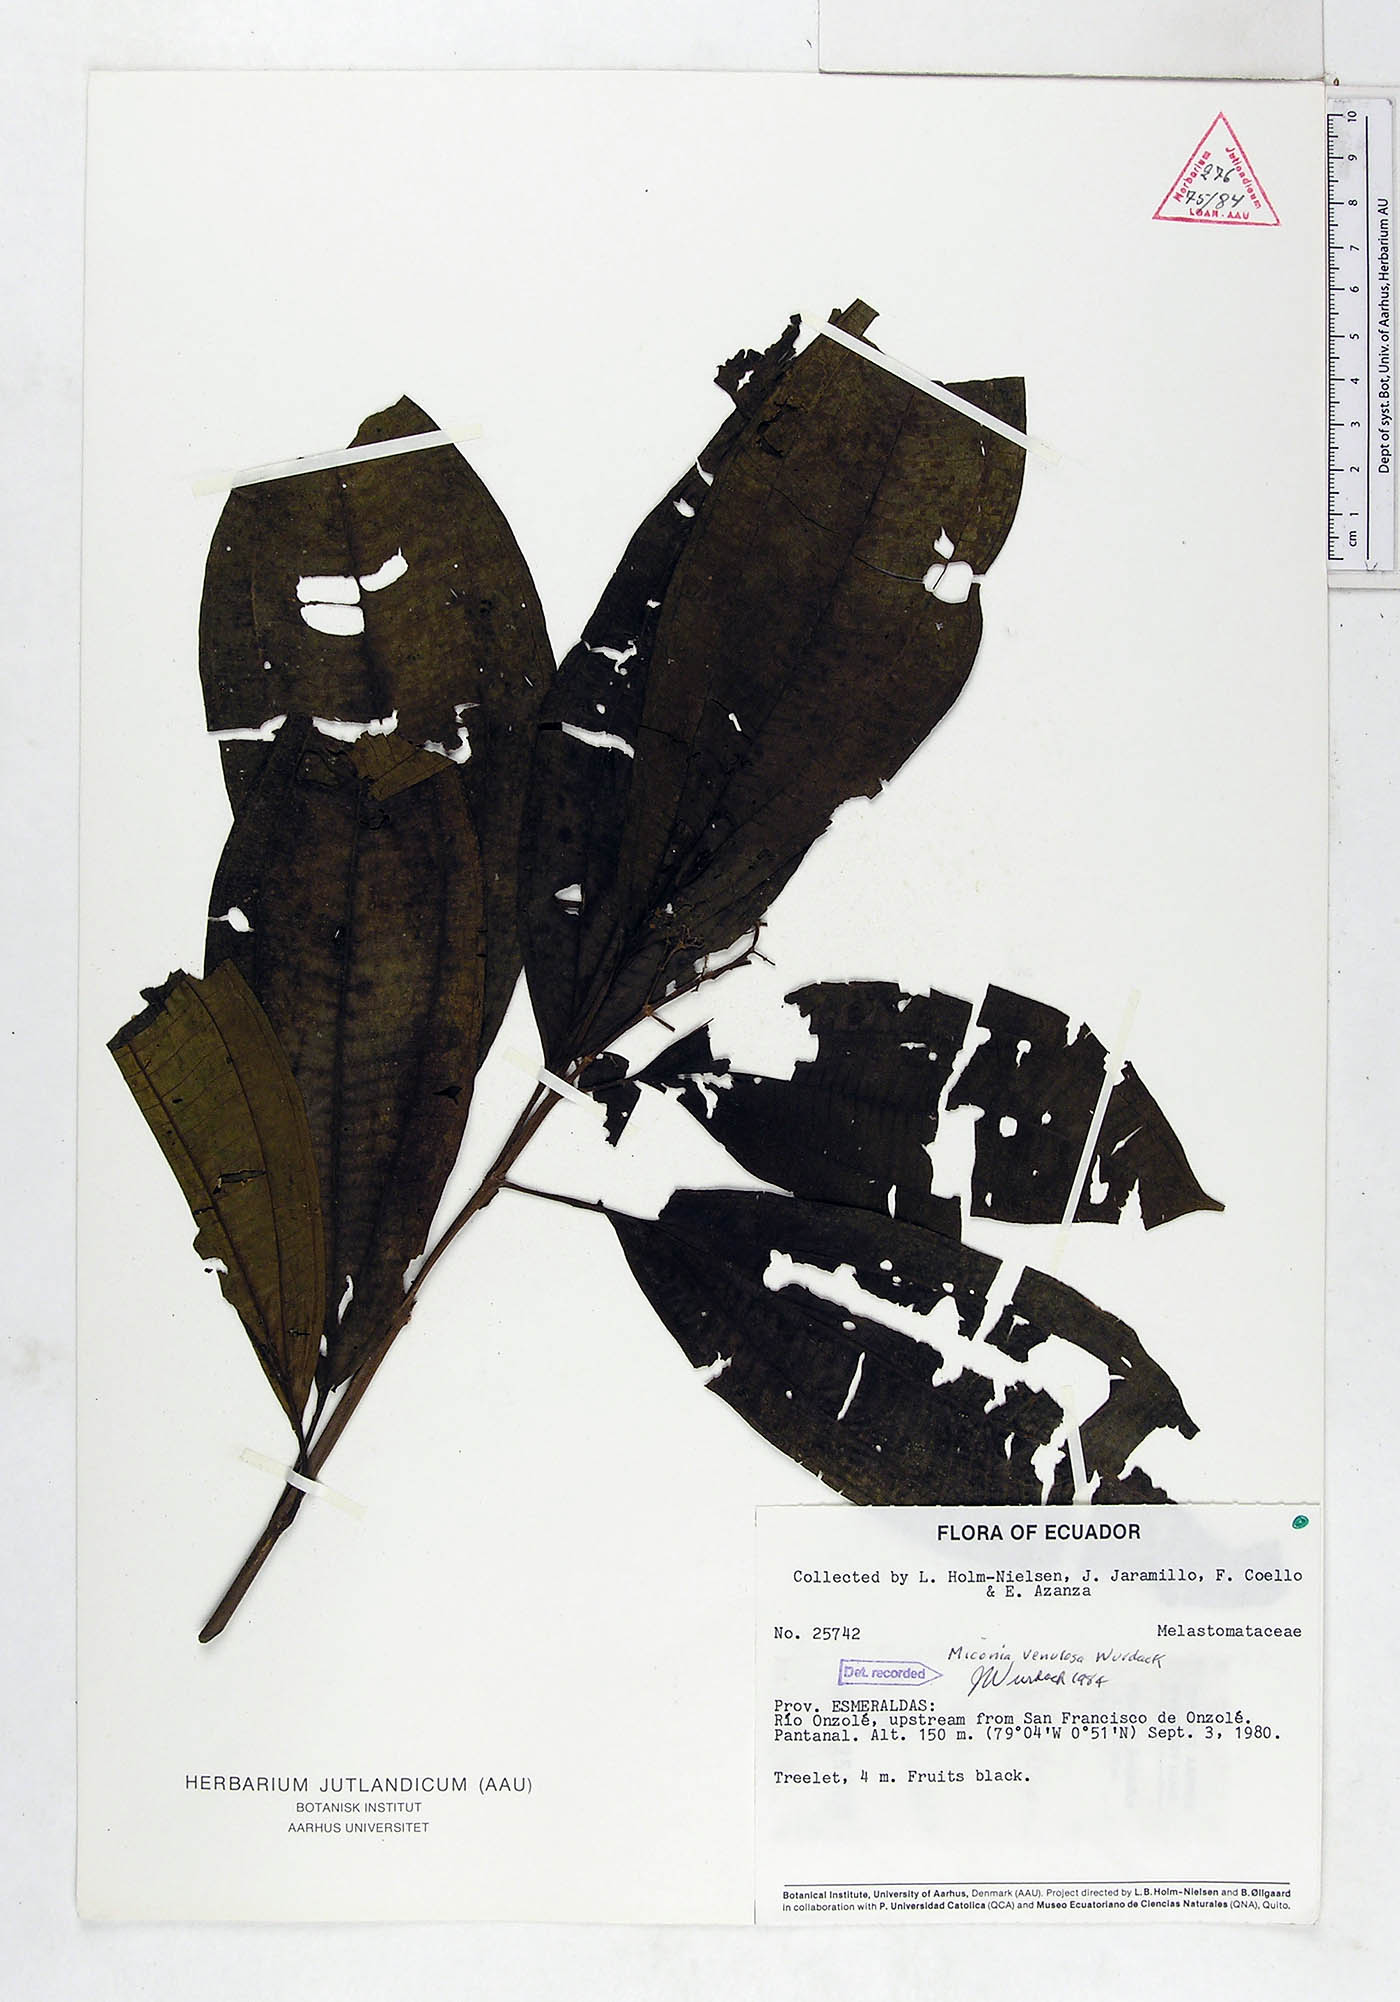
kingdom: Plantae
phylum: Tracheophyta
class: Magnoliopsida
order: Myrtales
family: Melastomataceae
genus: Miconia
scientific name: Miconia venulosa
